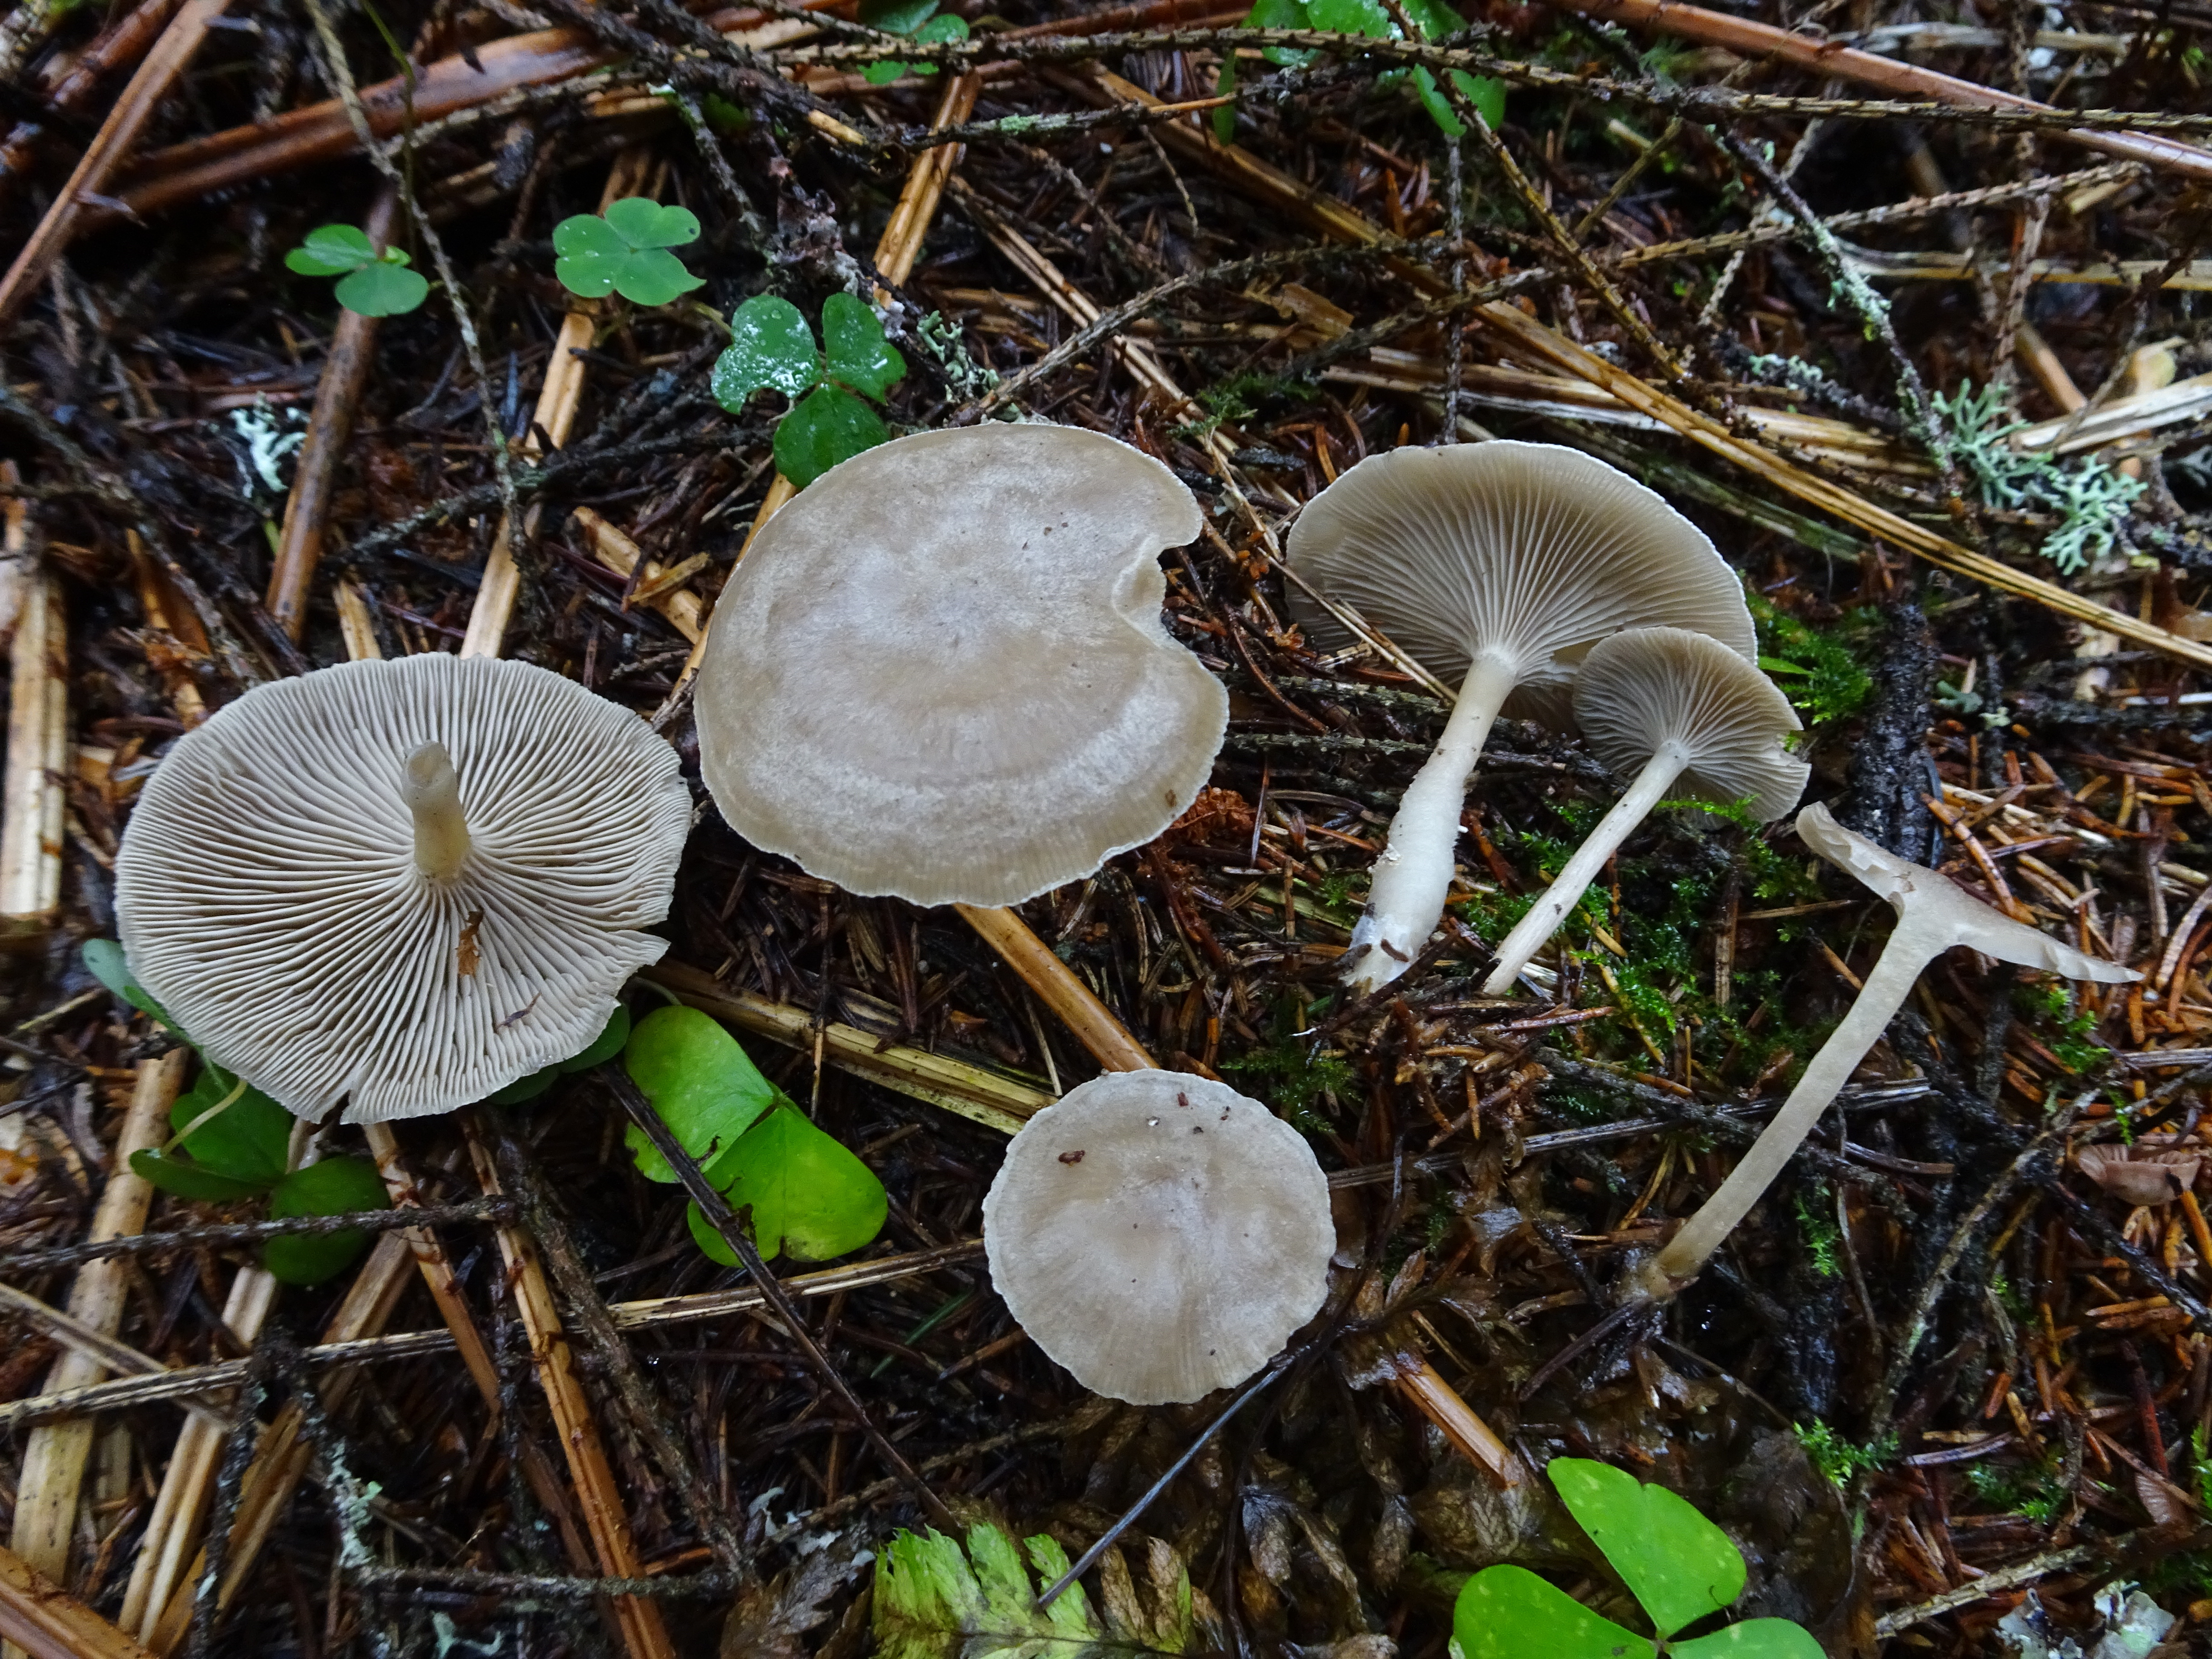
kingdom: Fungi
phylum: Basidiomycota
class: Agaricomycetes
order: Agaricales
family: Tricholomataceae
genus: Clitocybe
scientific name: Clitocybe ditopa
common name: Mealy frosted funnel
